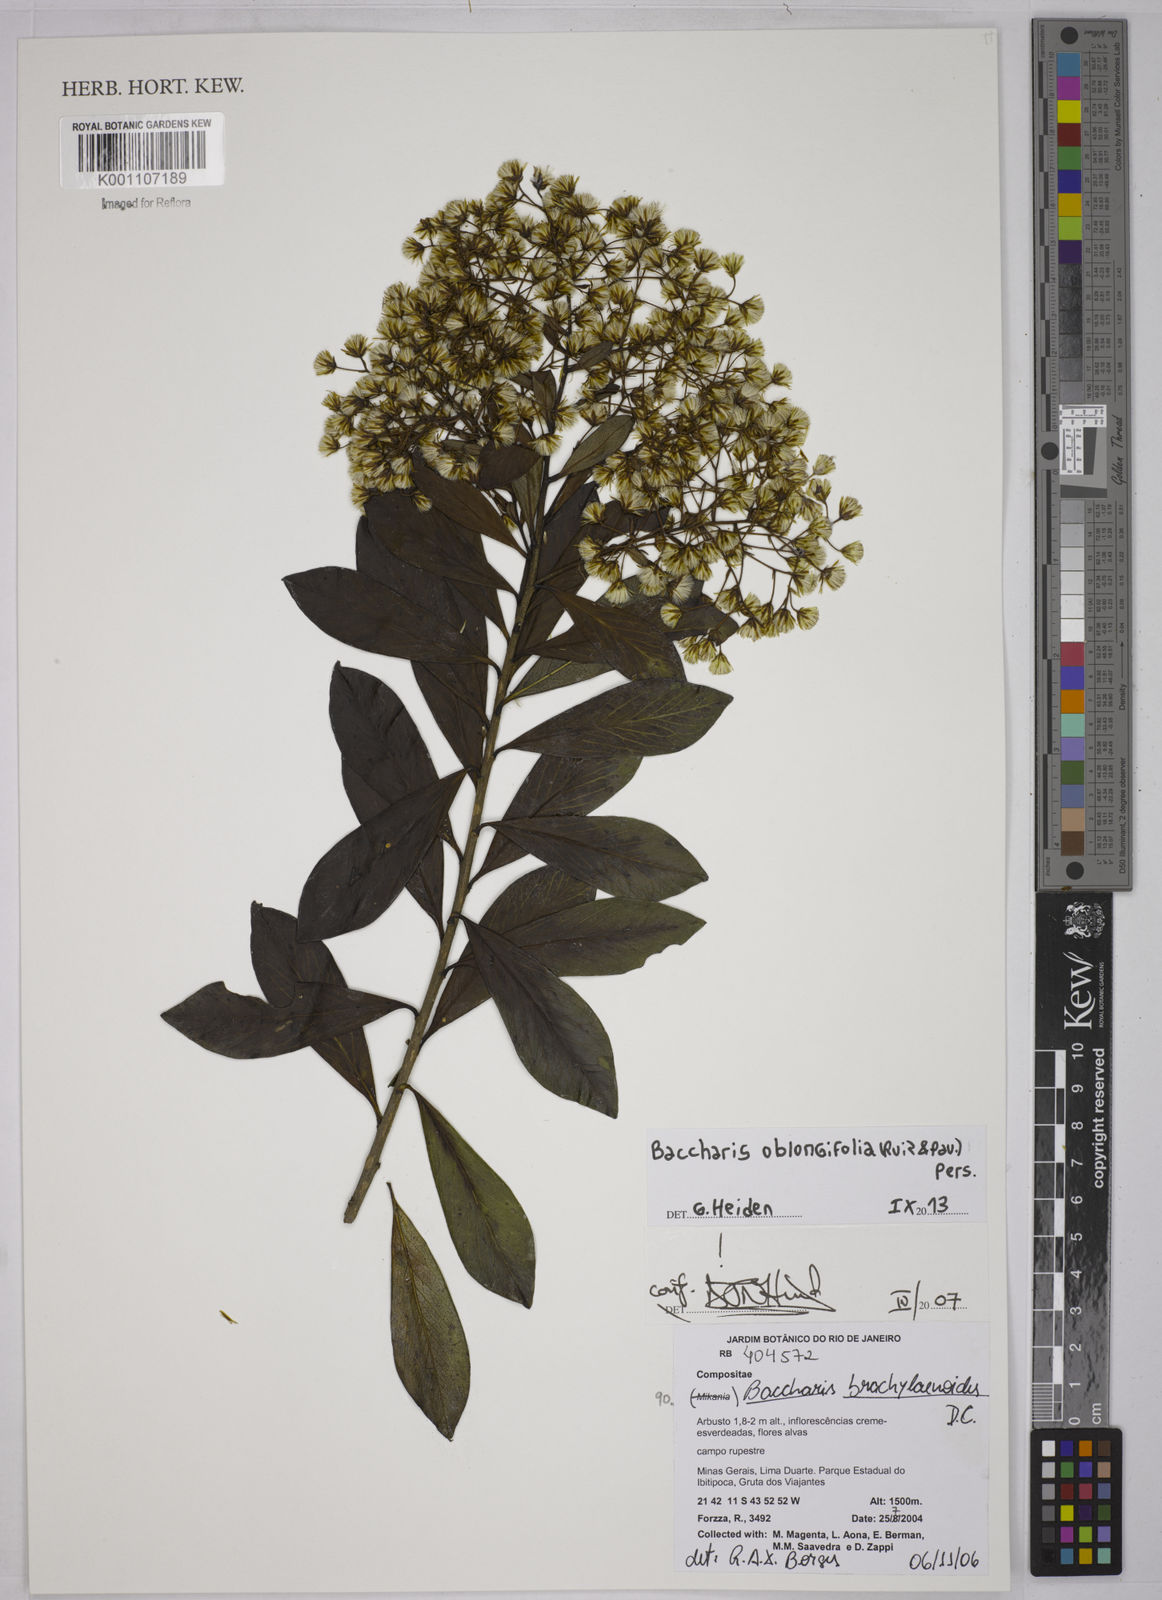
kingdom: Plantae
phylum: Tracheophyta
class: Magnoliopsida
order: Asterales
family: Asteraceae
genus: Baccharis
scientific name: Baccharis oblongifolia
